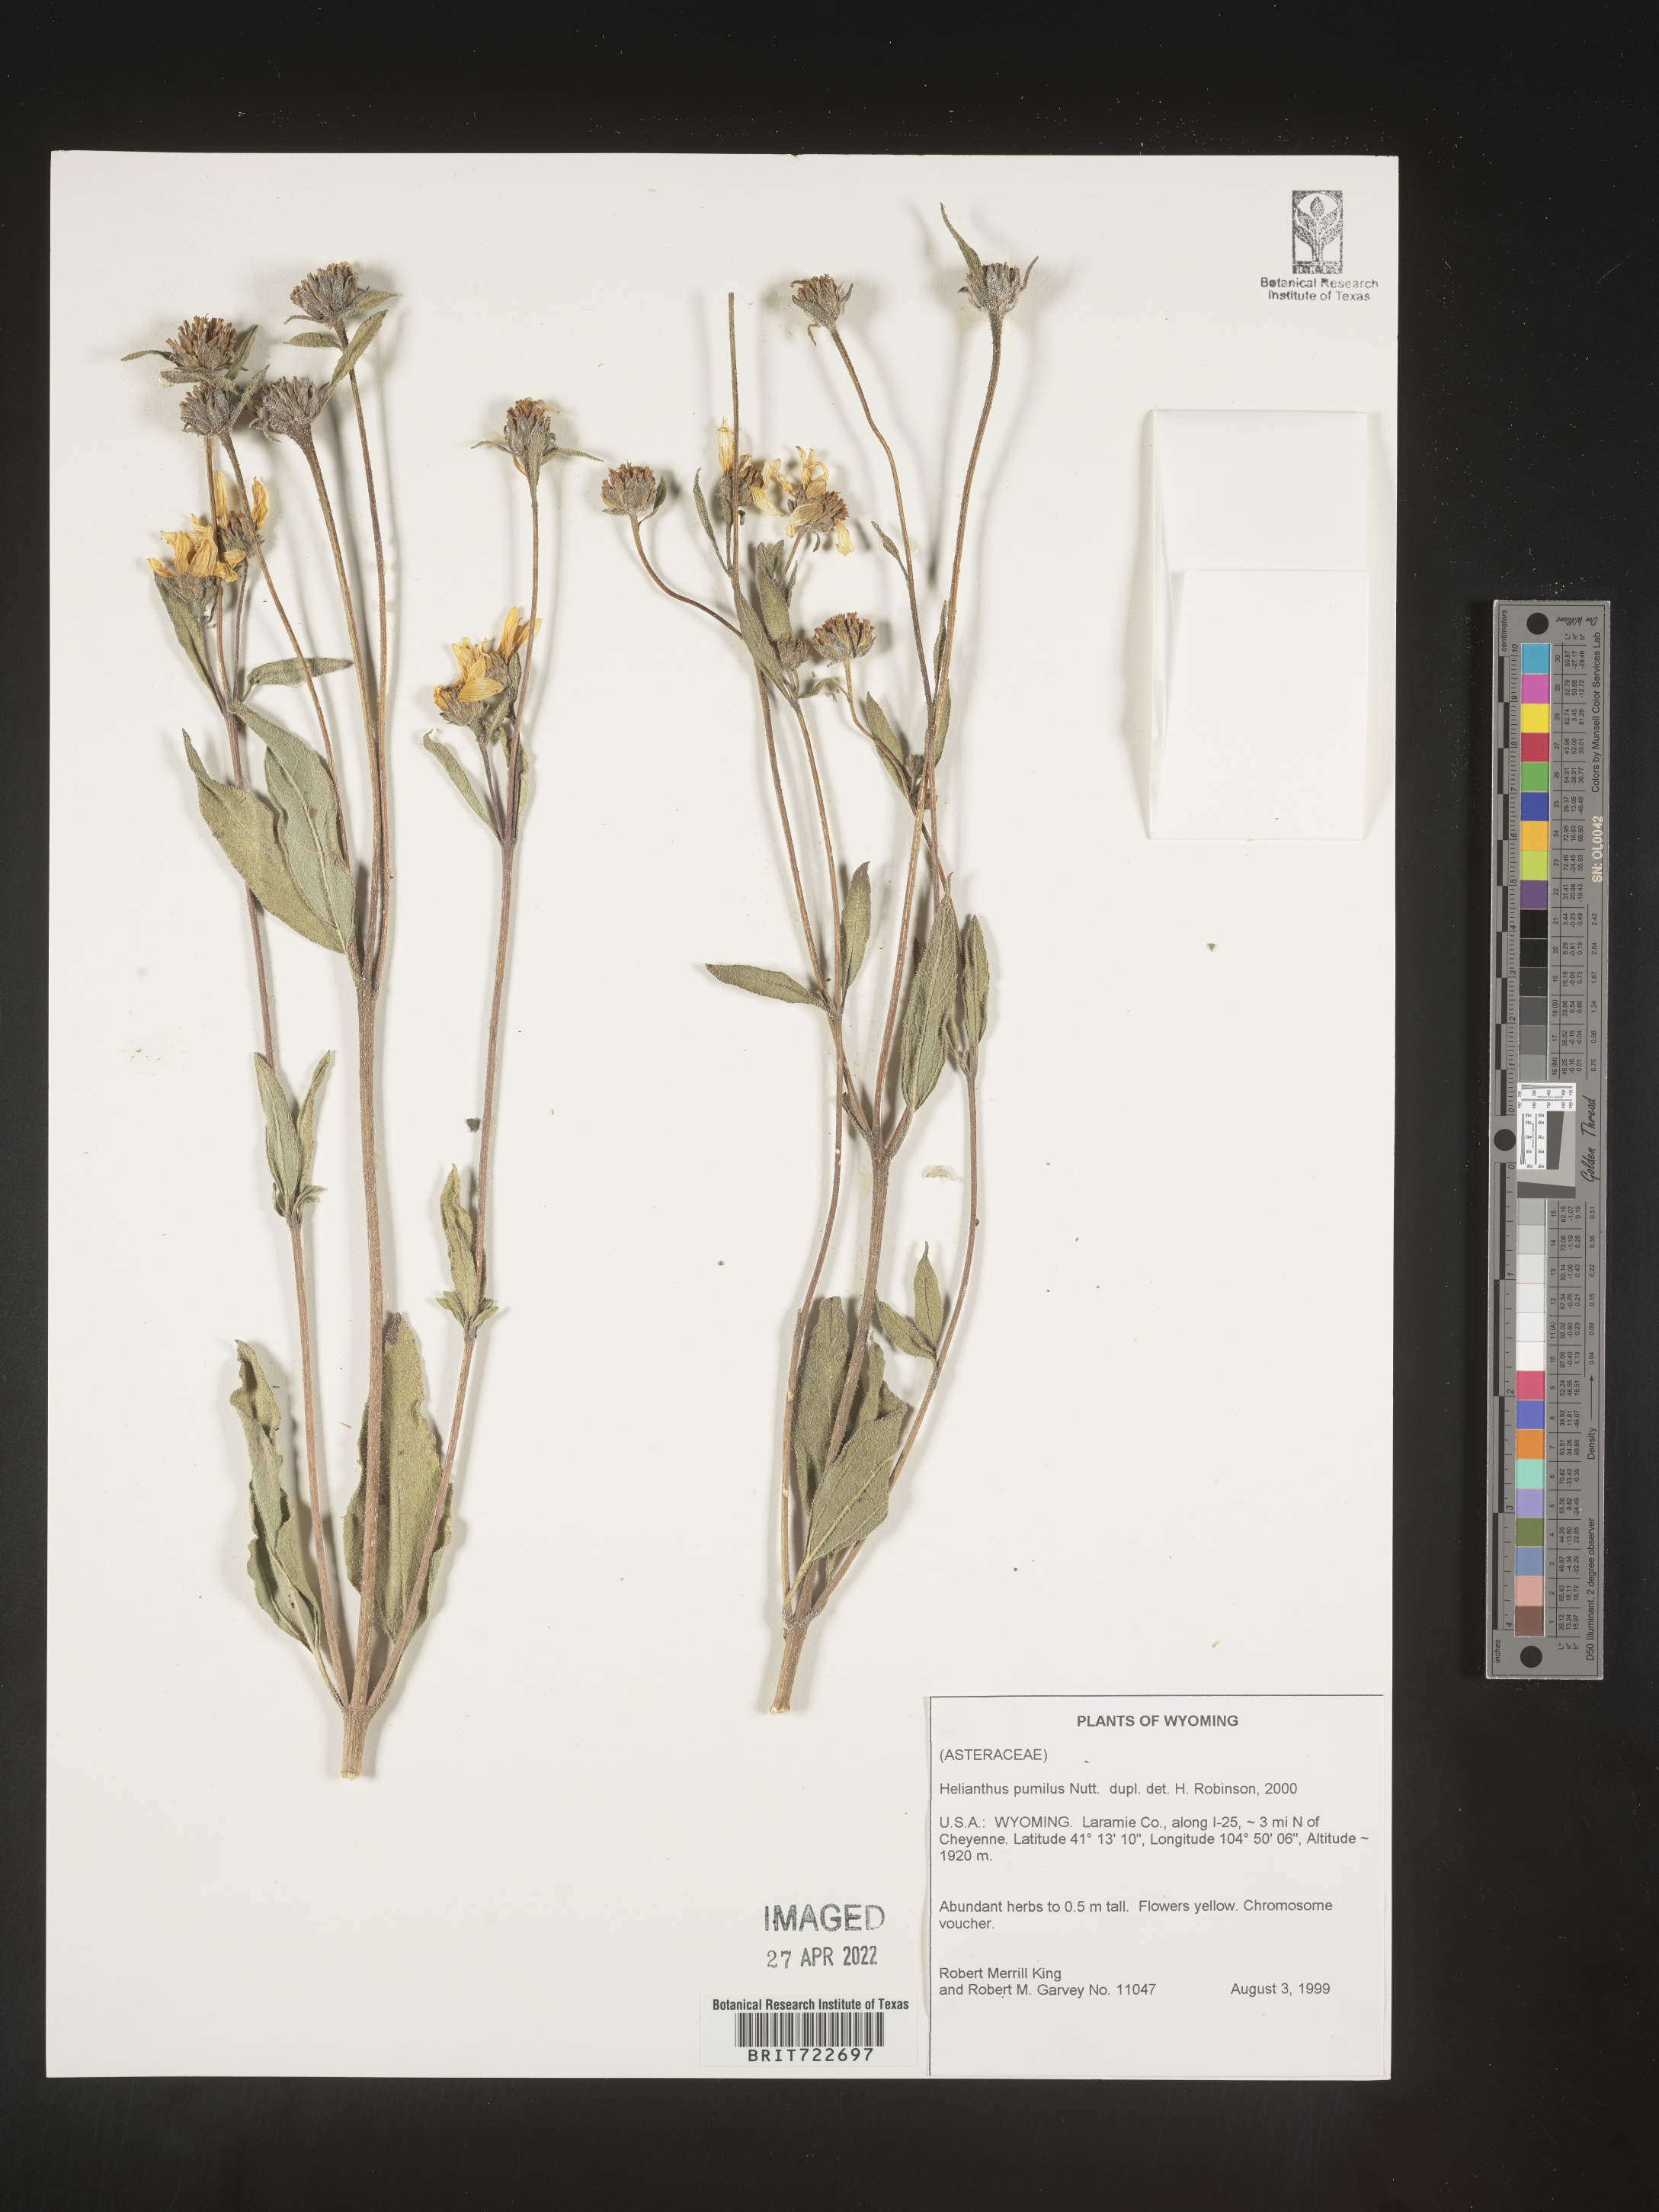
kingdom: Plantae
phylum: Tracheophyta
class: Magnoliopsida
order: Asterales
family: Asteraceae
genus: Helianthus
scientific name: Helianthus pumilus
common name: Dwarf sunflower
